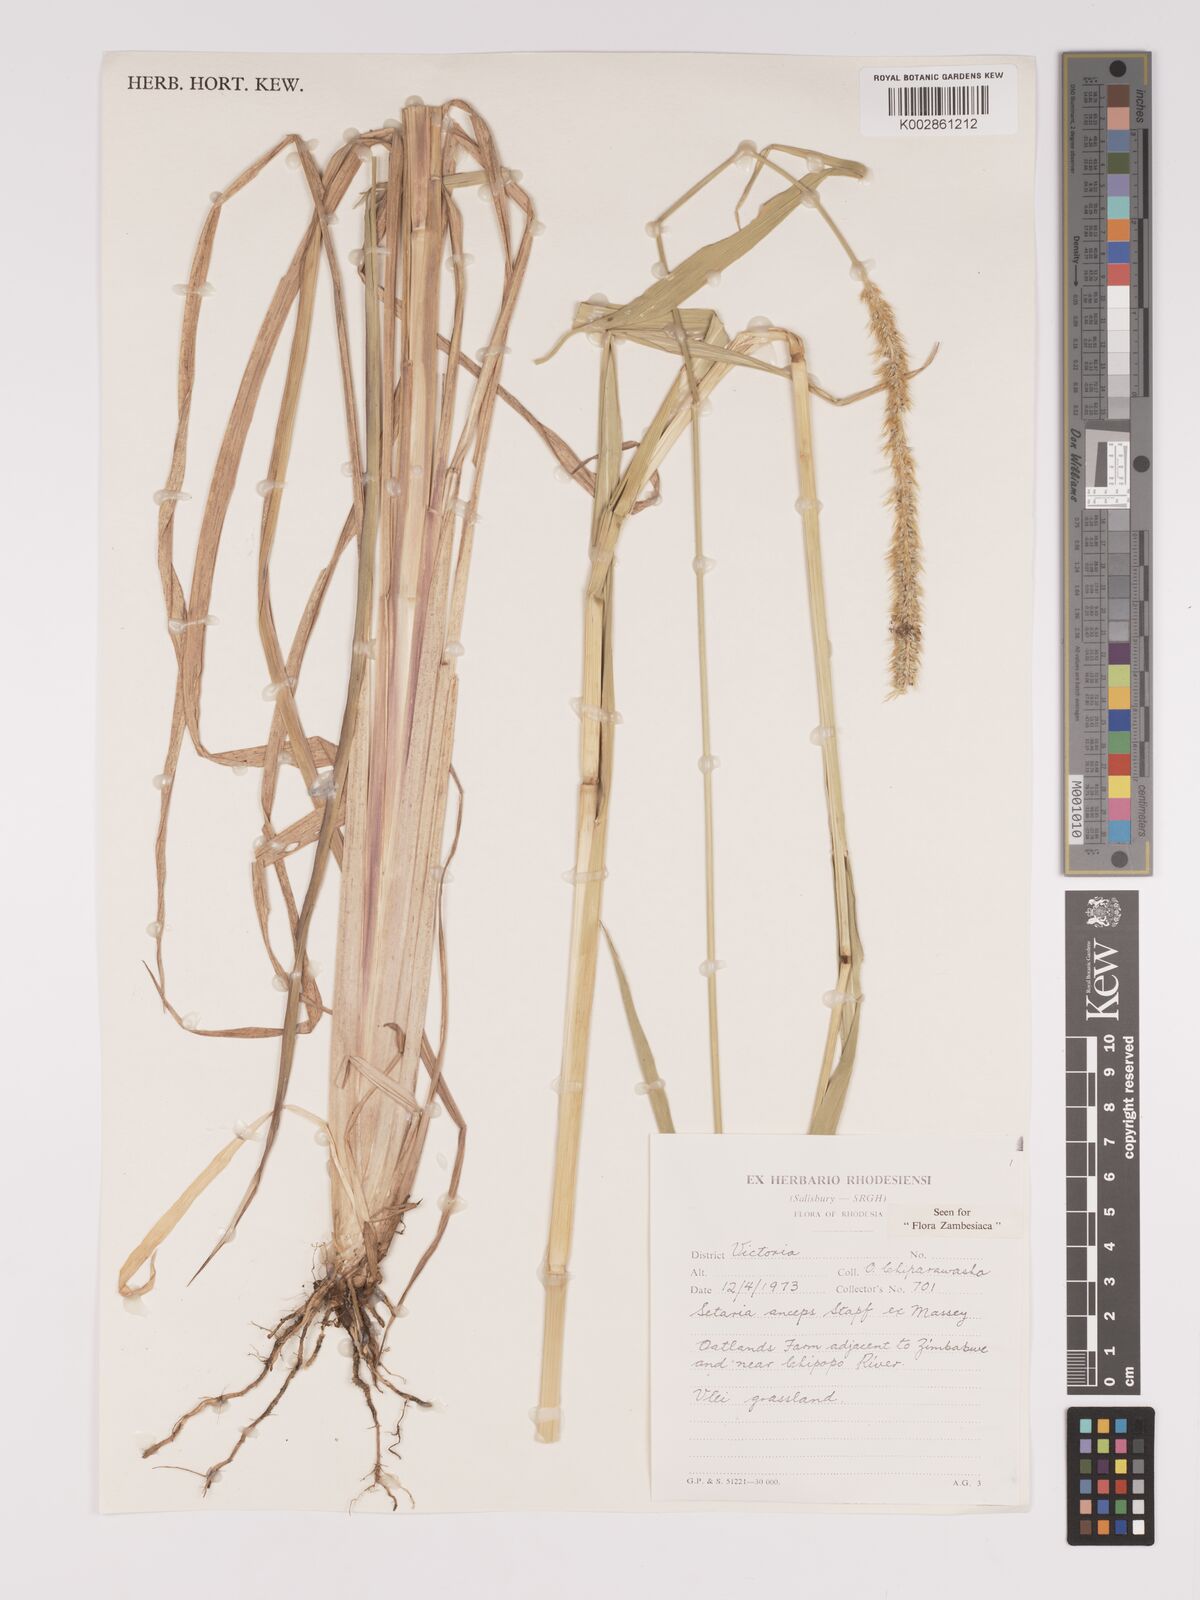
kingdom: Plantae
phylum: Tracheophyta
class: Liliopsida
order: Poales
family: Poaceae
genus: Setaria
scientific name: Setaria sphacelata
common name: African bristlegrass
